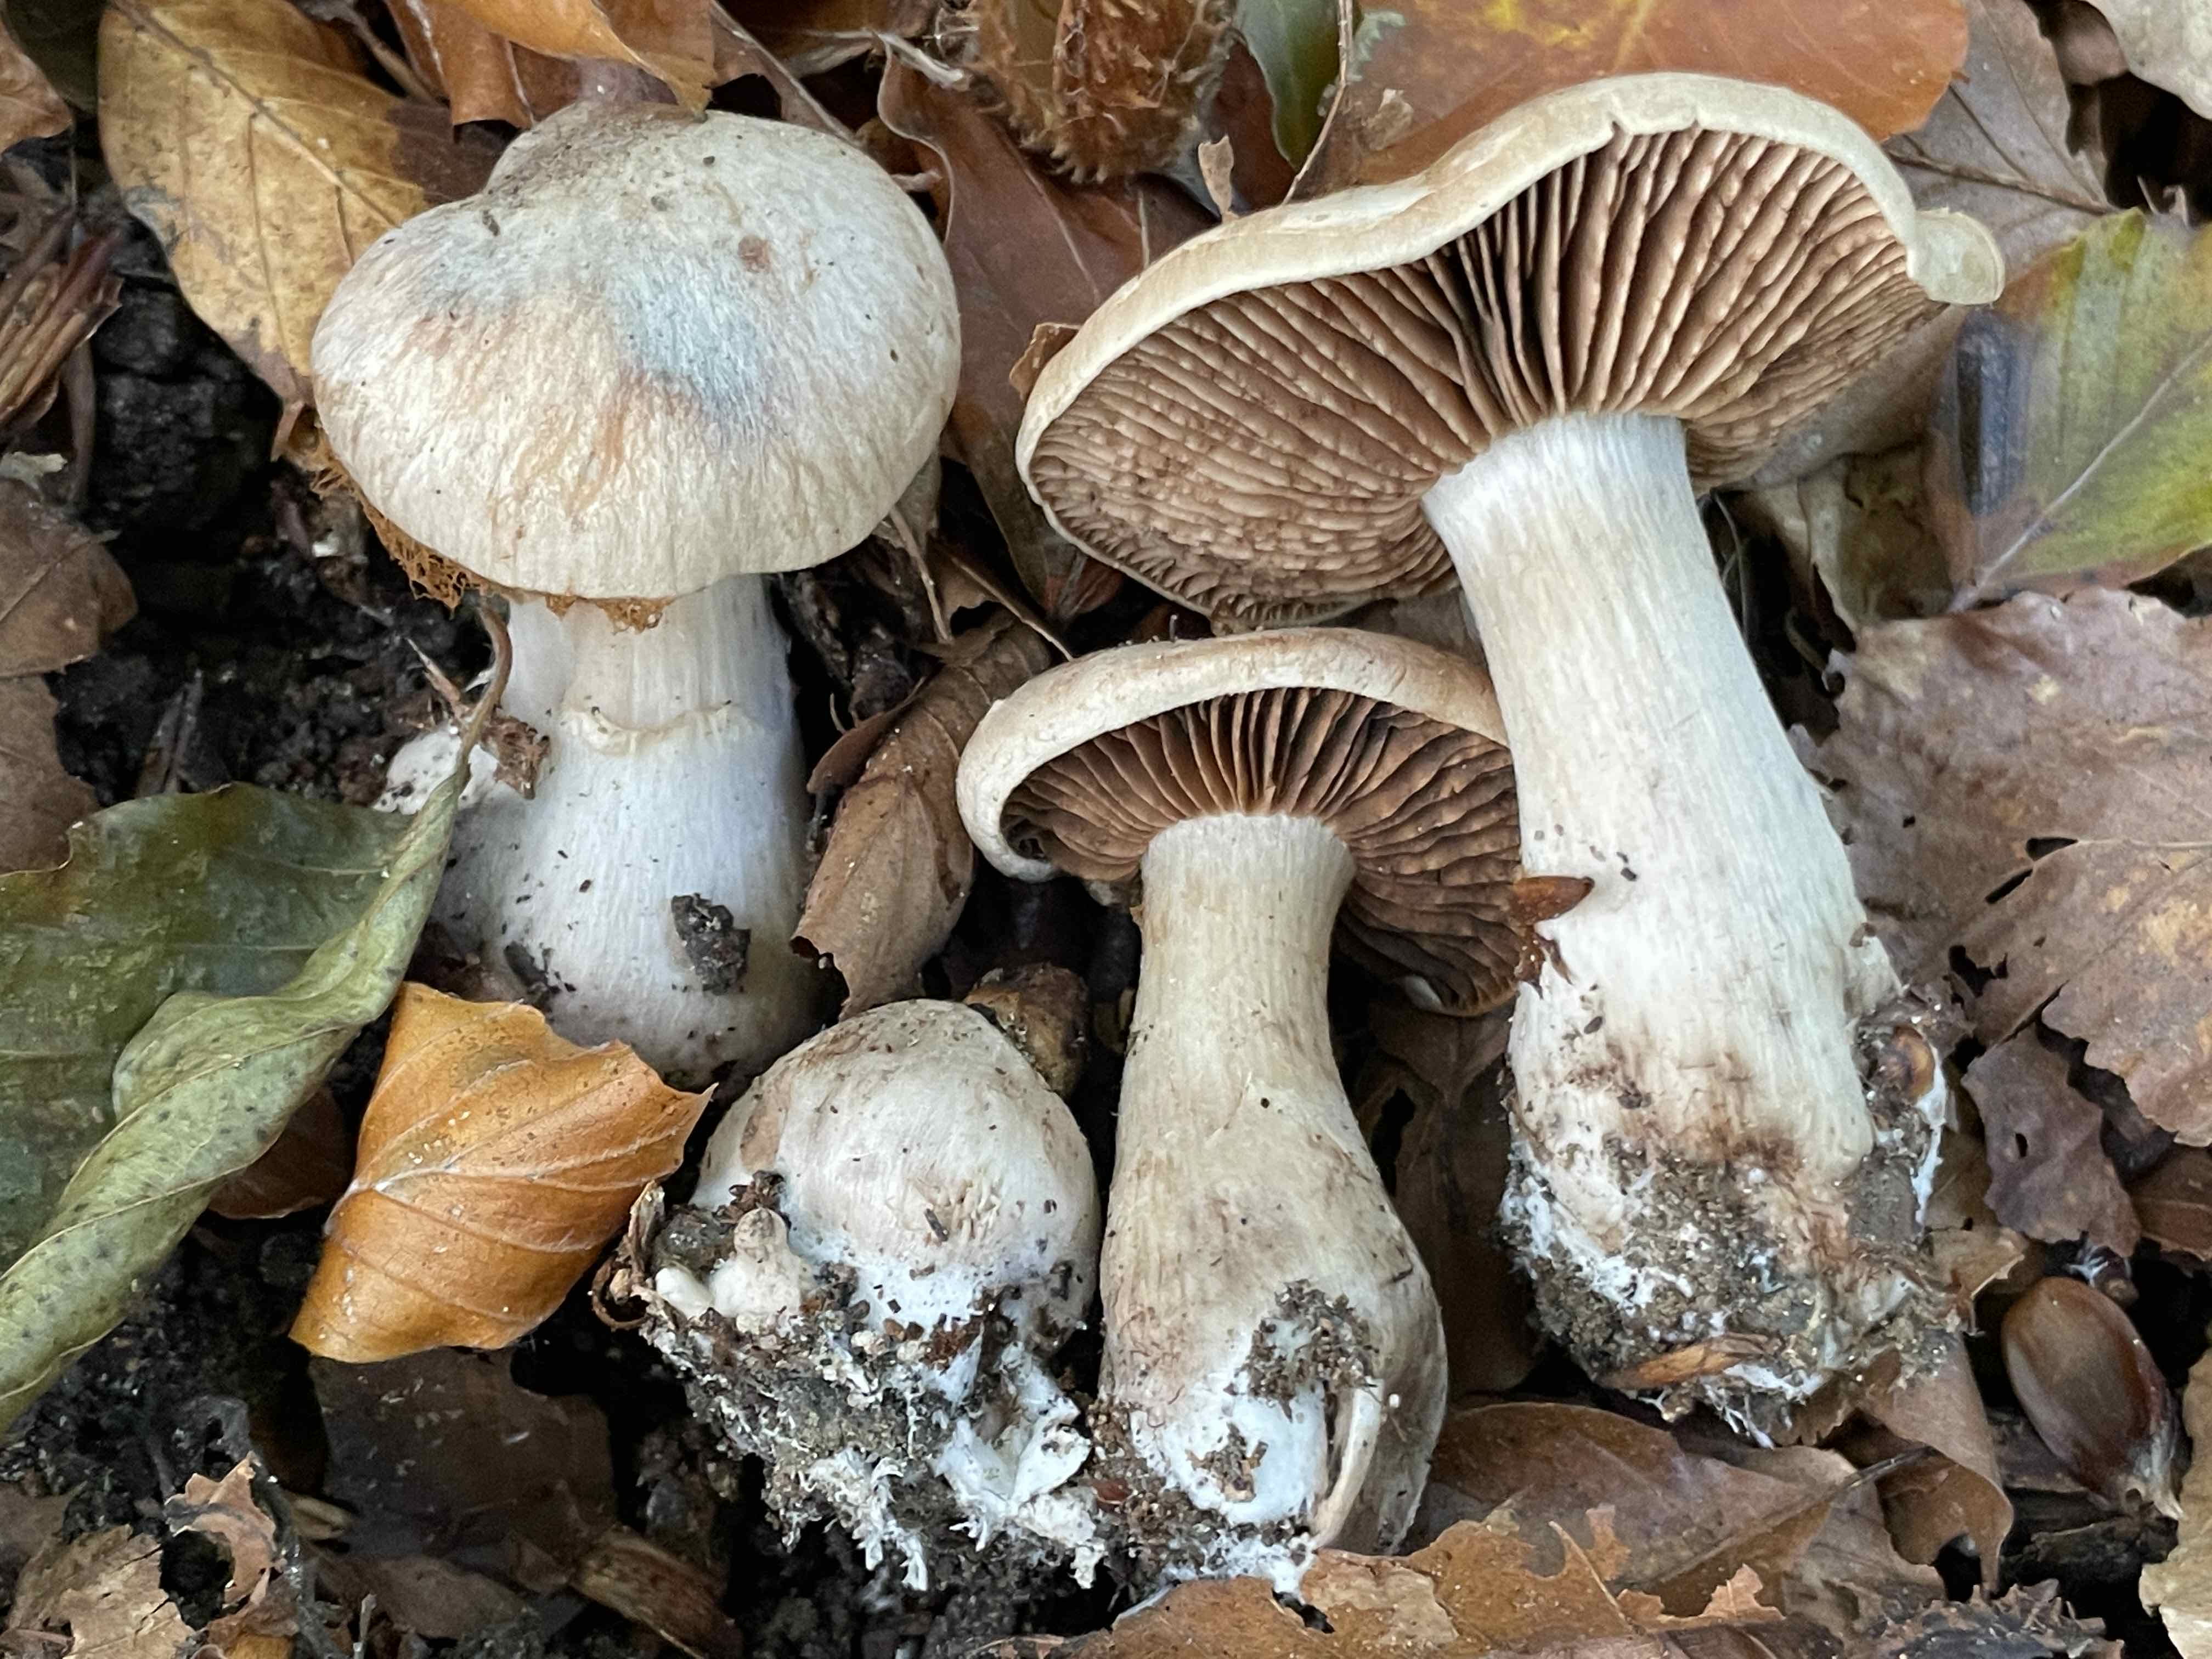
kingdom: Fungi
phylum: Basidiomycota
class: Agaricomycetes
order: Agaricales
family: Cortinariaceae
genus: Cortinarius
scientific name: Cortinarius
